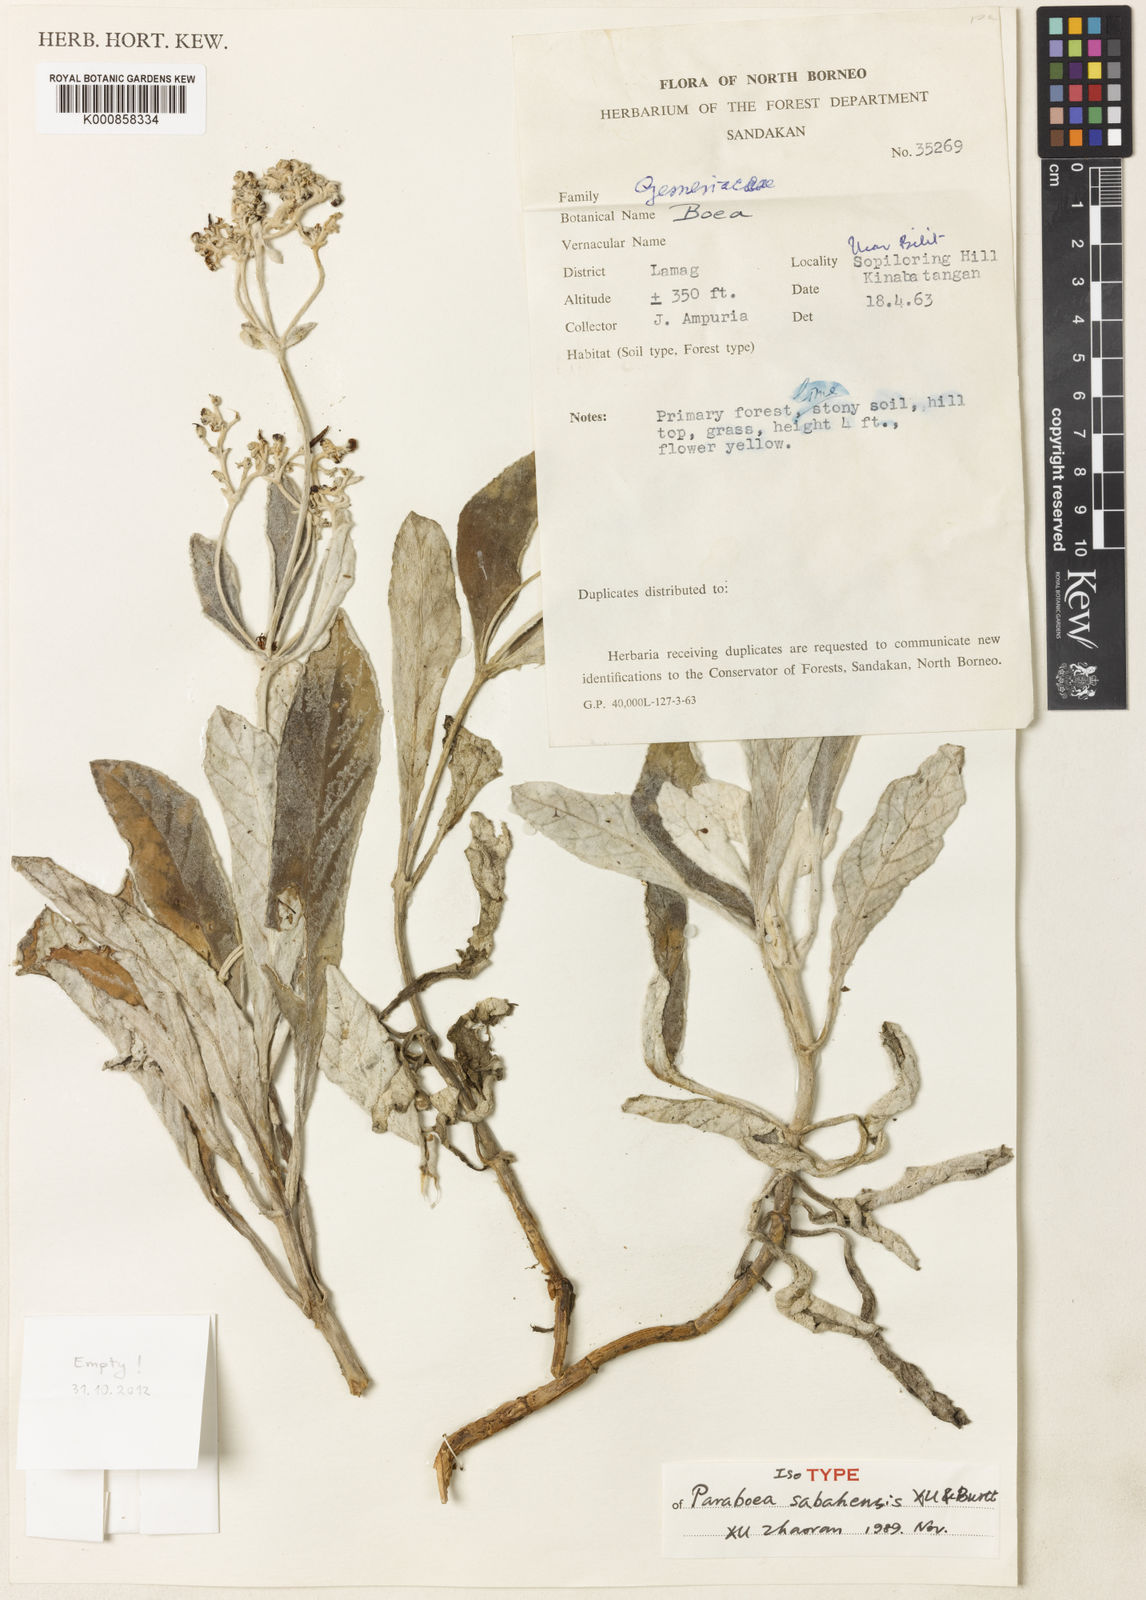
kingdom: Plantae
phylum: Tracheophyta
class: Magnoliopsida
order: Lamiales
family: Gesneriaceae
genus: Paraboea
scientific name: Paraboea sabahensis
